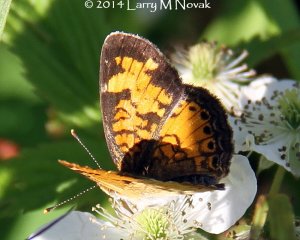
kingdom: Animalia
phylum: Arthropoda
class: Insecta
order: Lepidoptera
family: Nymphalidae
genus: Phyciodes
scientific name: Phyciodes tharos
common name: Northern Crescent
